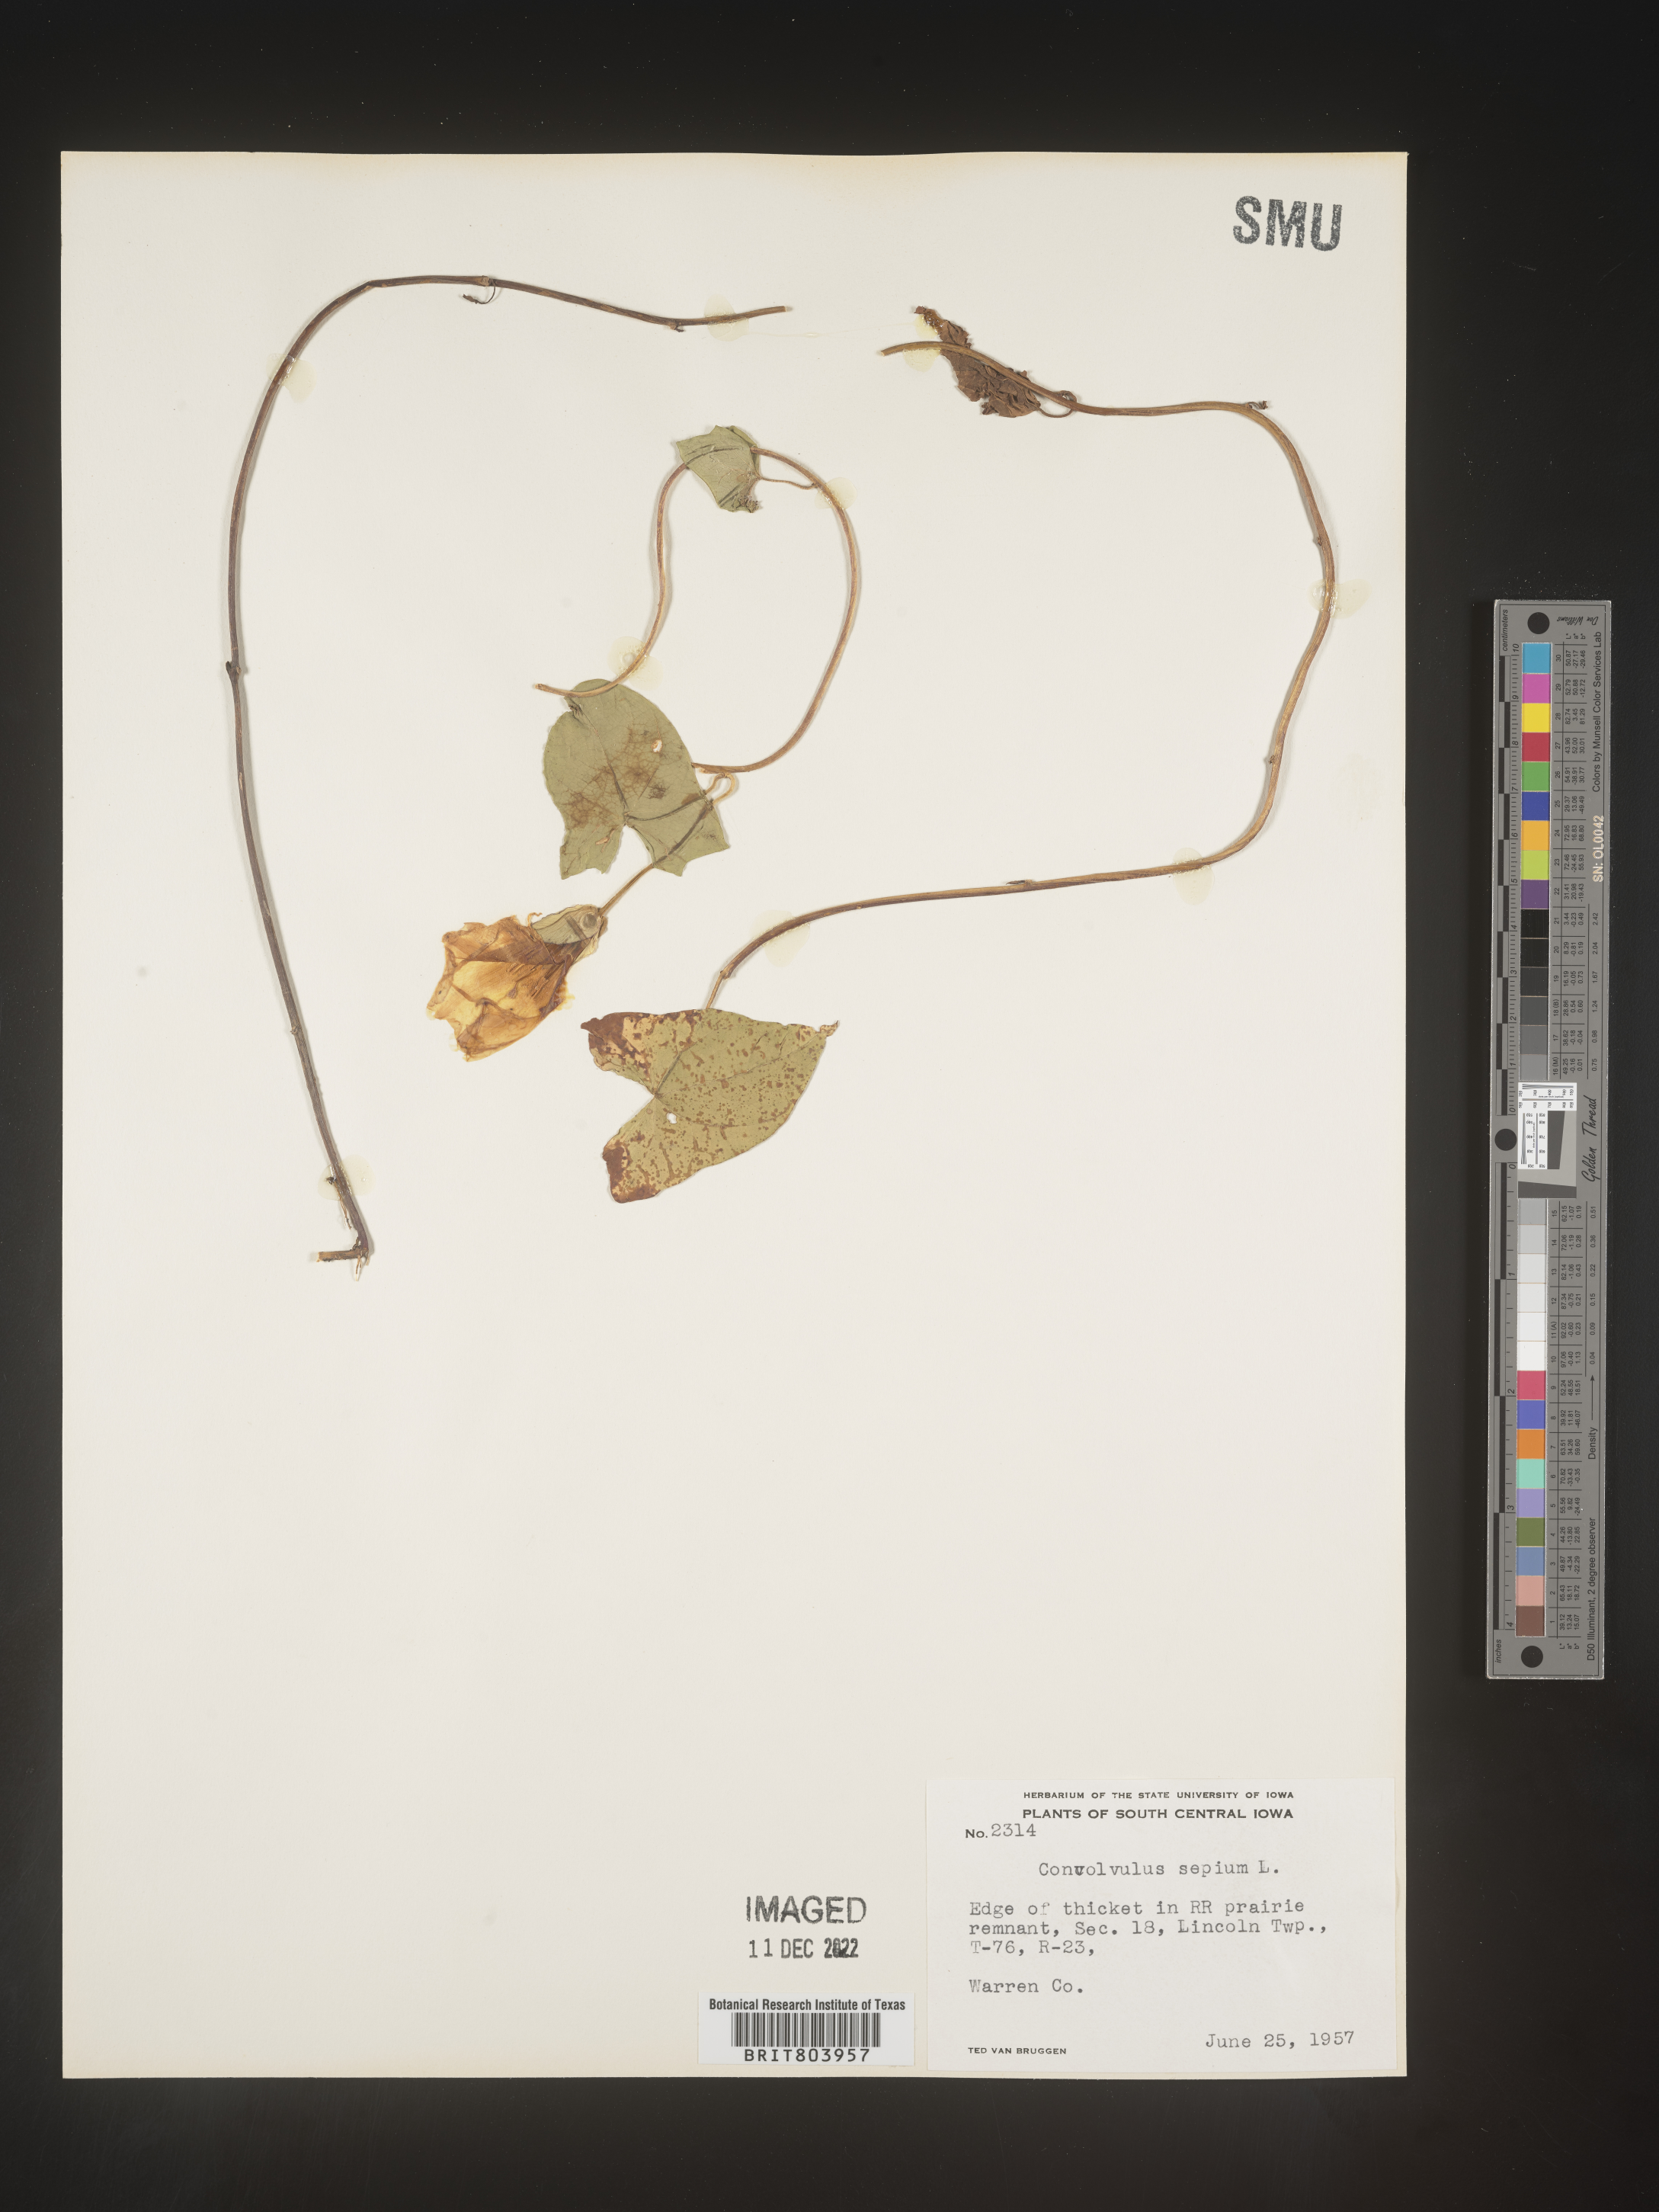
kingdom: Plantae
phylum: Tracheophyta
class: Magnoliopsida
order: Solanales
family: Convolvulaceae
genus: Calystegia
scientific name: Calystegia sepium
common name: Hedge bindweed
